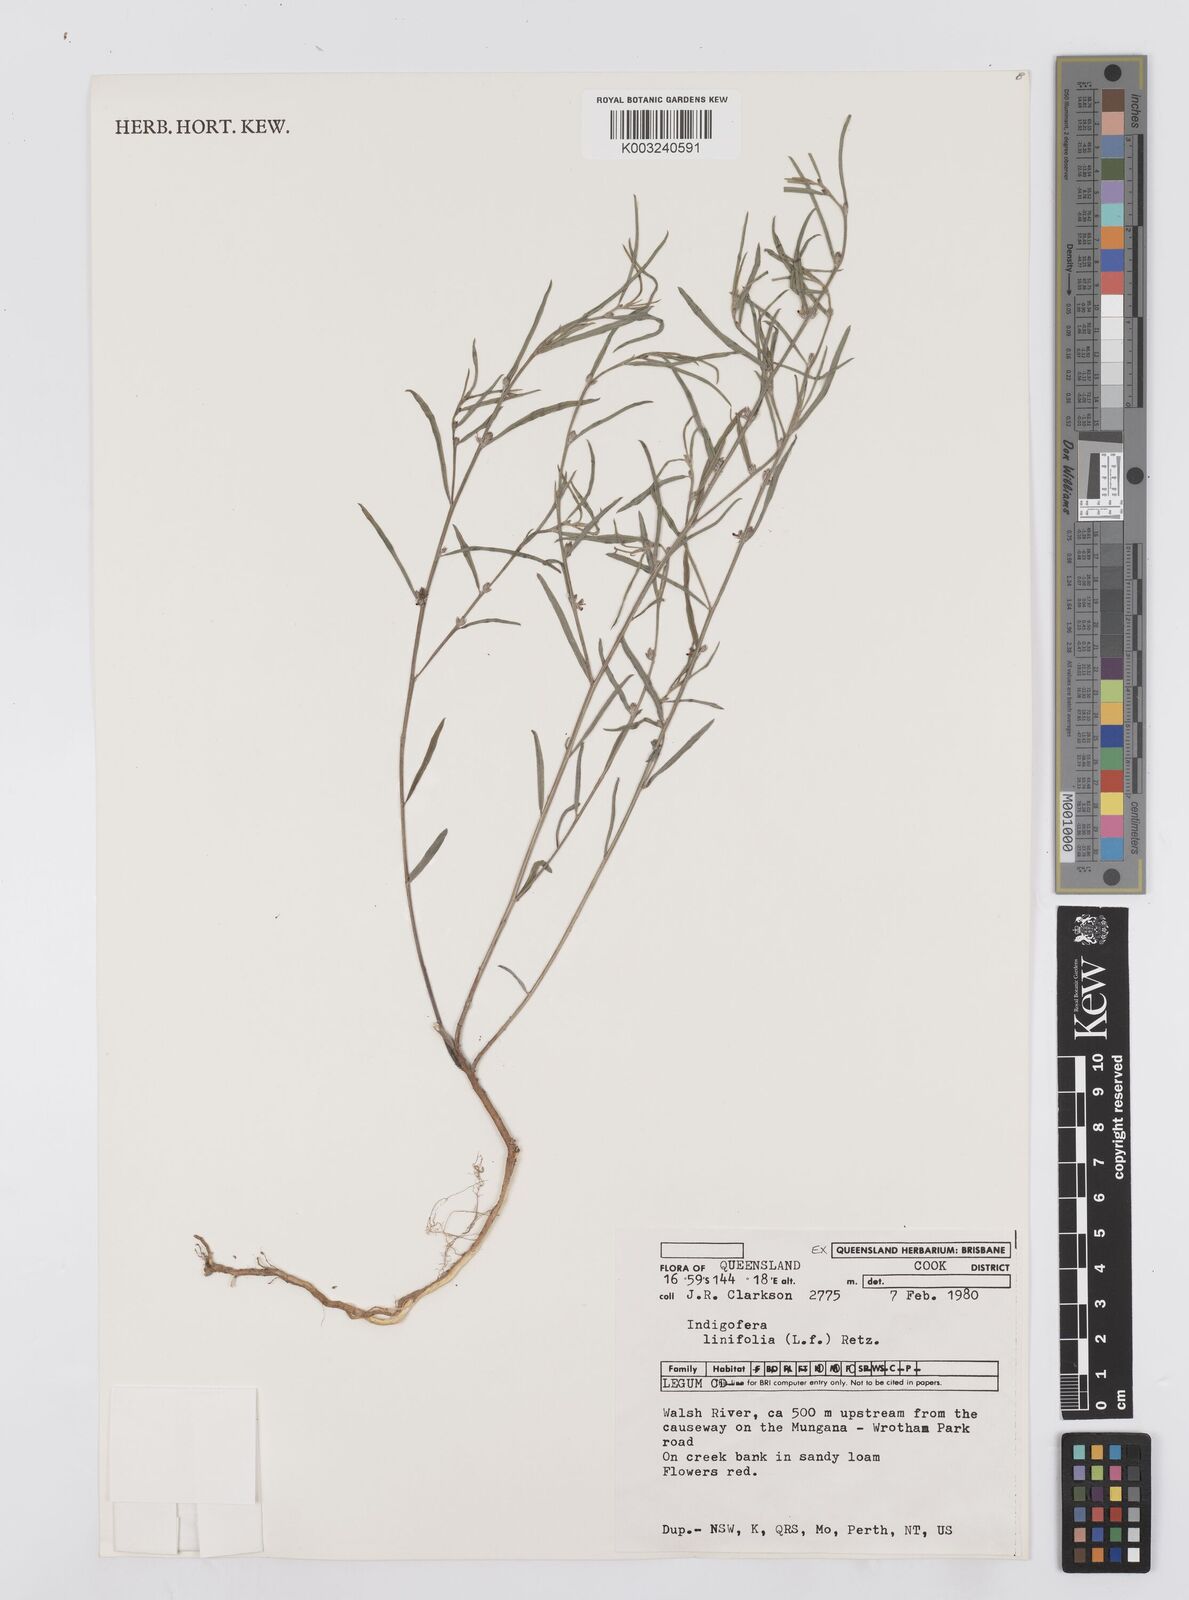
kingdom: Plantae
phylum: Tracheophyta
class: Magnoliopsida
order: Fabales
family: Fabaceae
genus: Indigofera
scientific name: Indigofera linifolia
